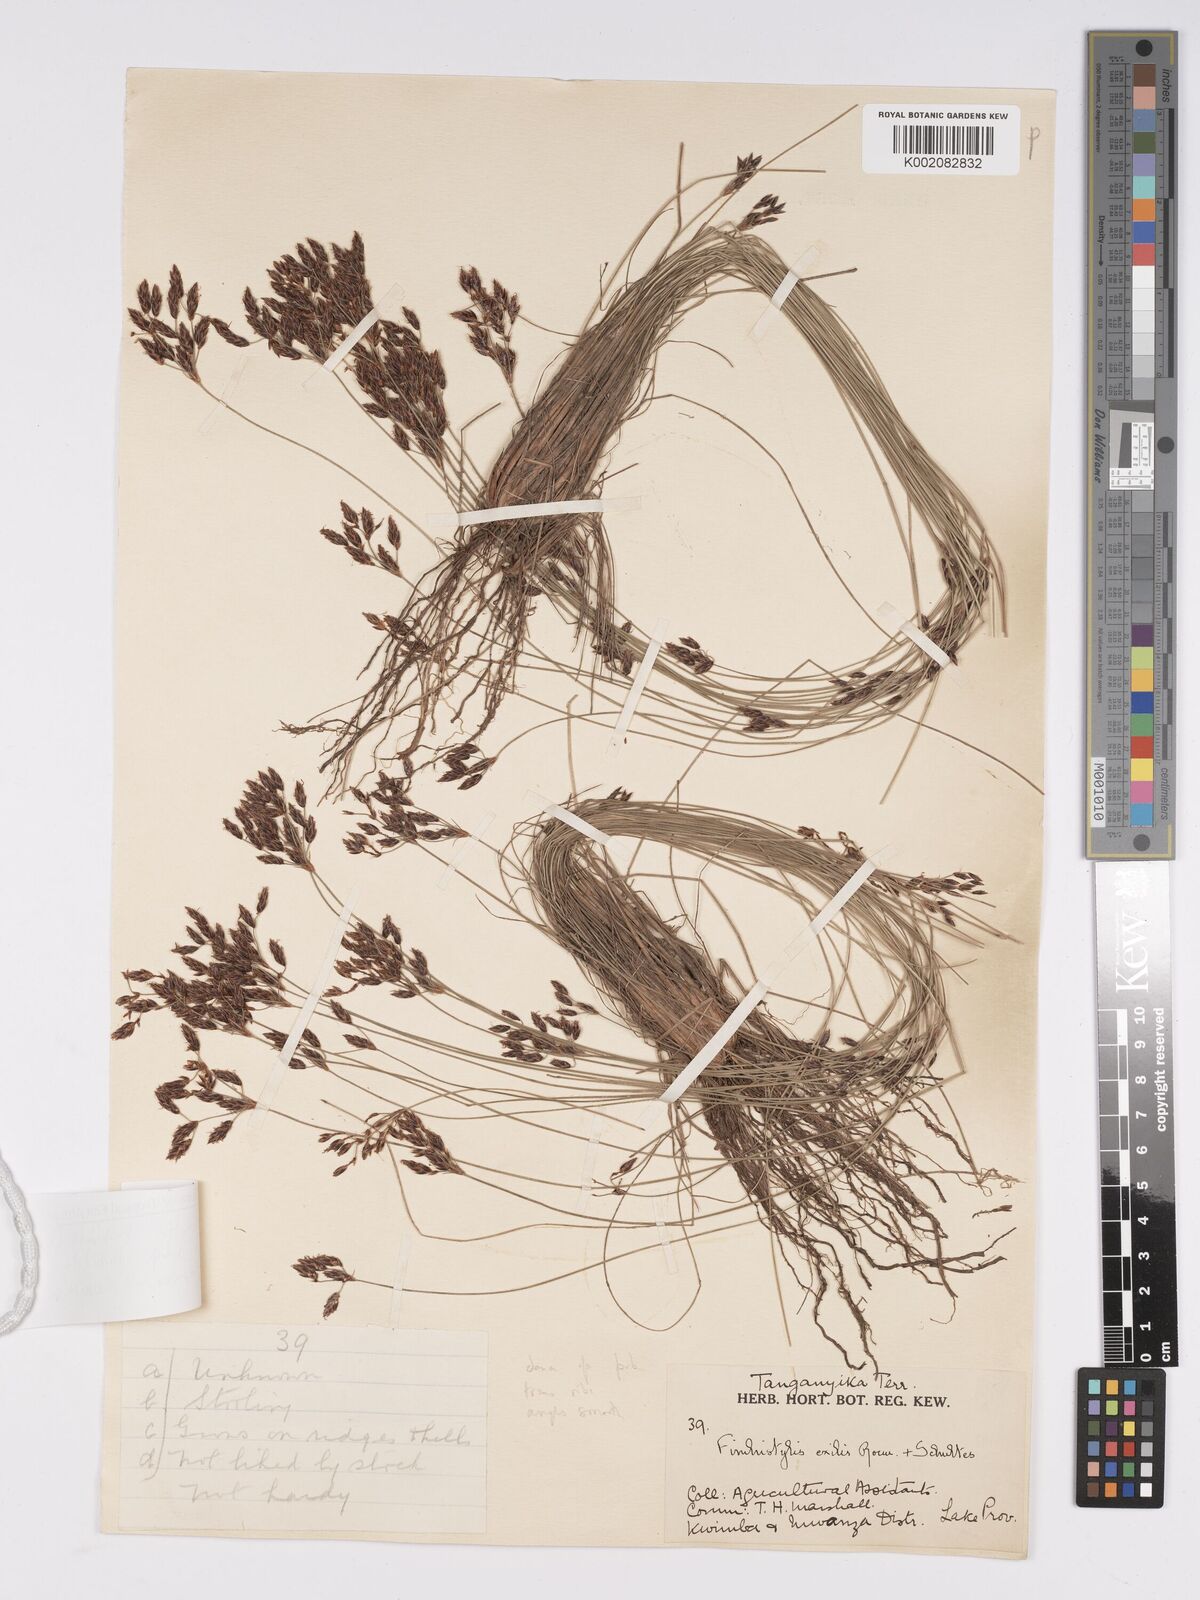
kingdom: Plantae
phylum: Tracheophyta
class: Liliopsida
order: Poales
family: Cyperaceae
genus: Bulbostylis
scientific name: Bulbostylis hispidula
